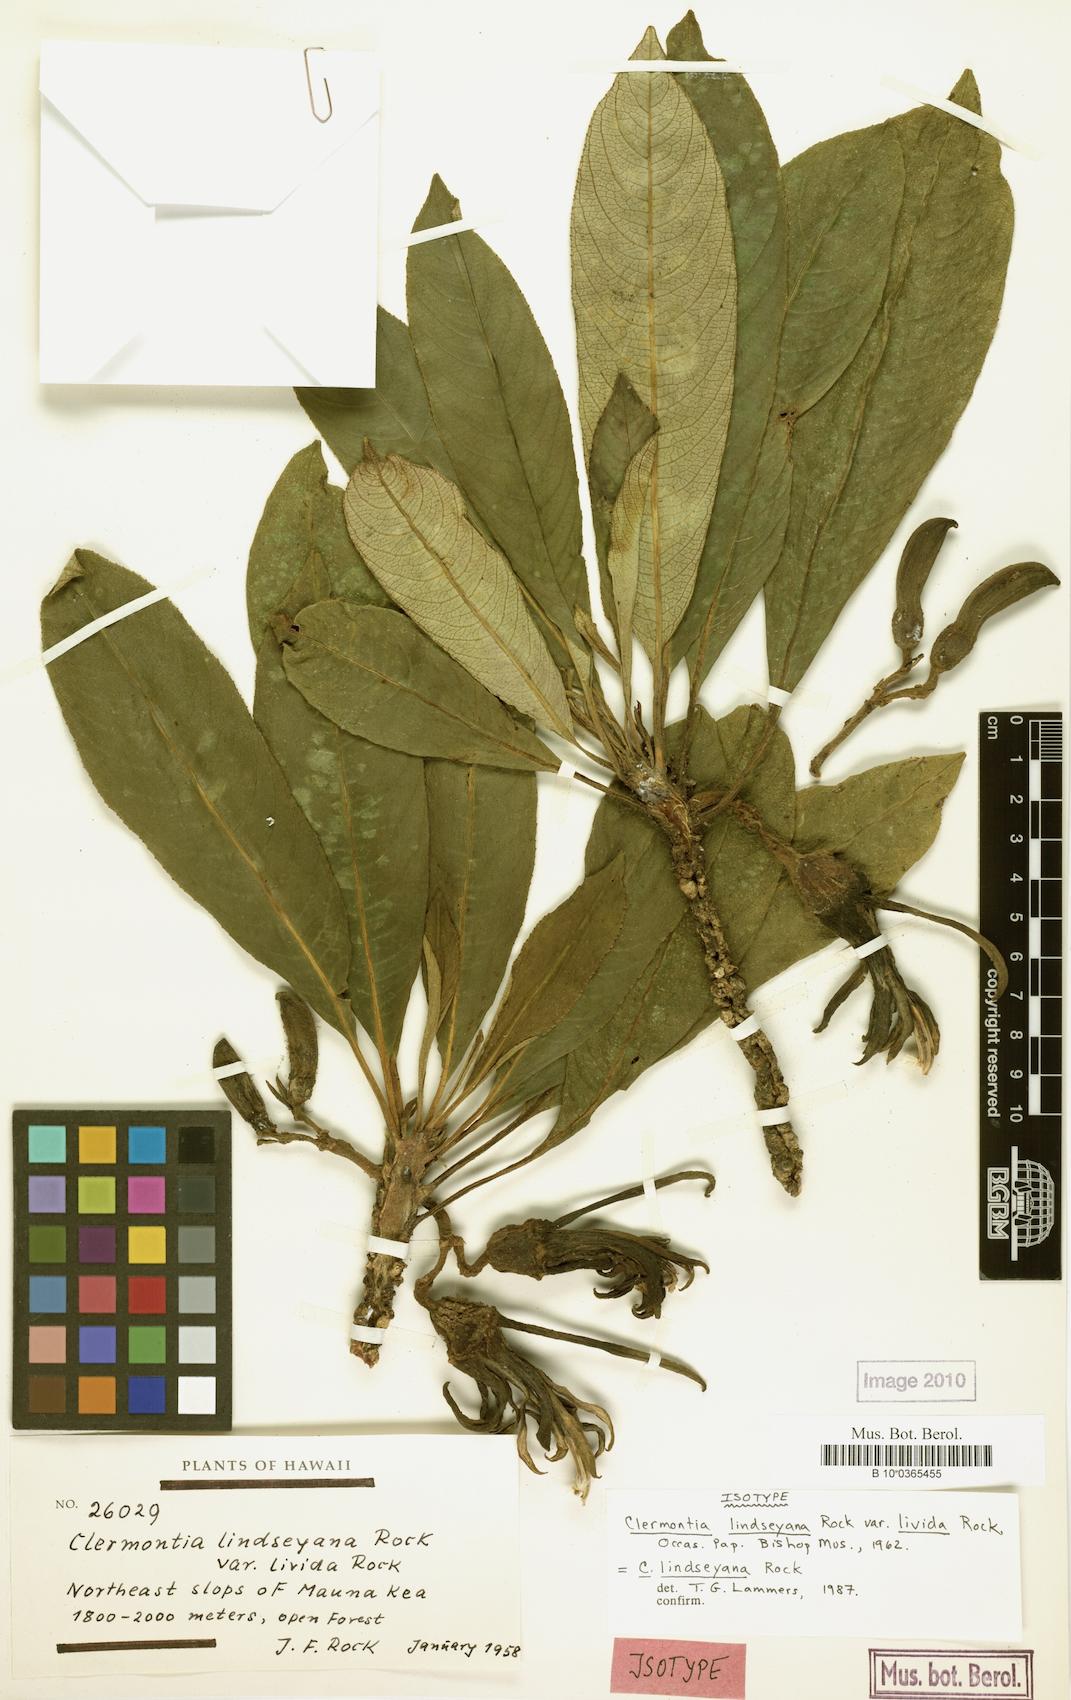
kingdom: Plantae
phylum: Tracheophyta
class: Magnoliopsida
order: Asterales
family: Campanulaceae
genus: Clermontia
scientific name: Clermontia lindseyana
